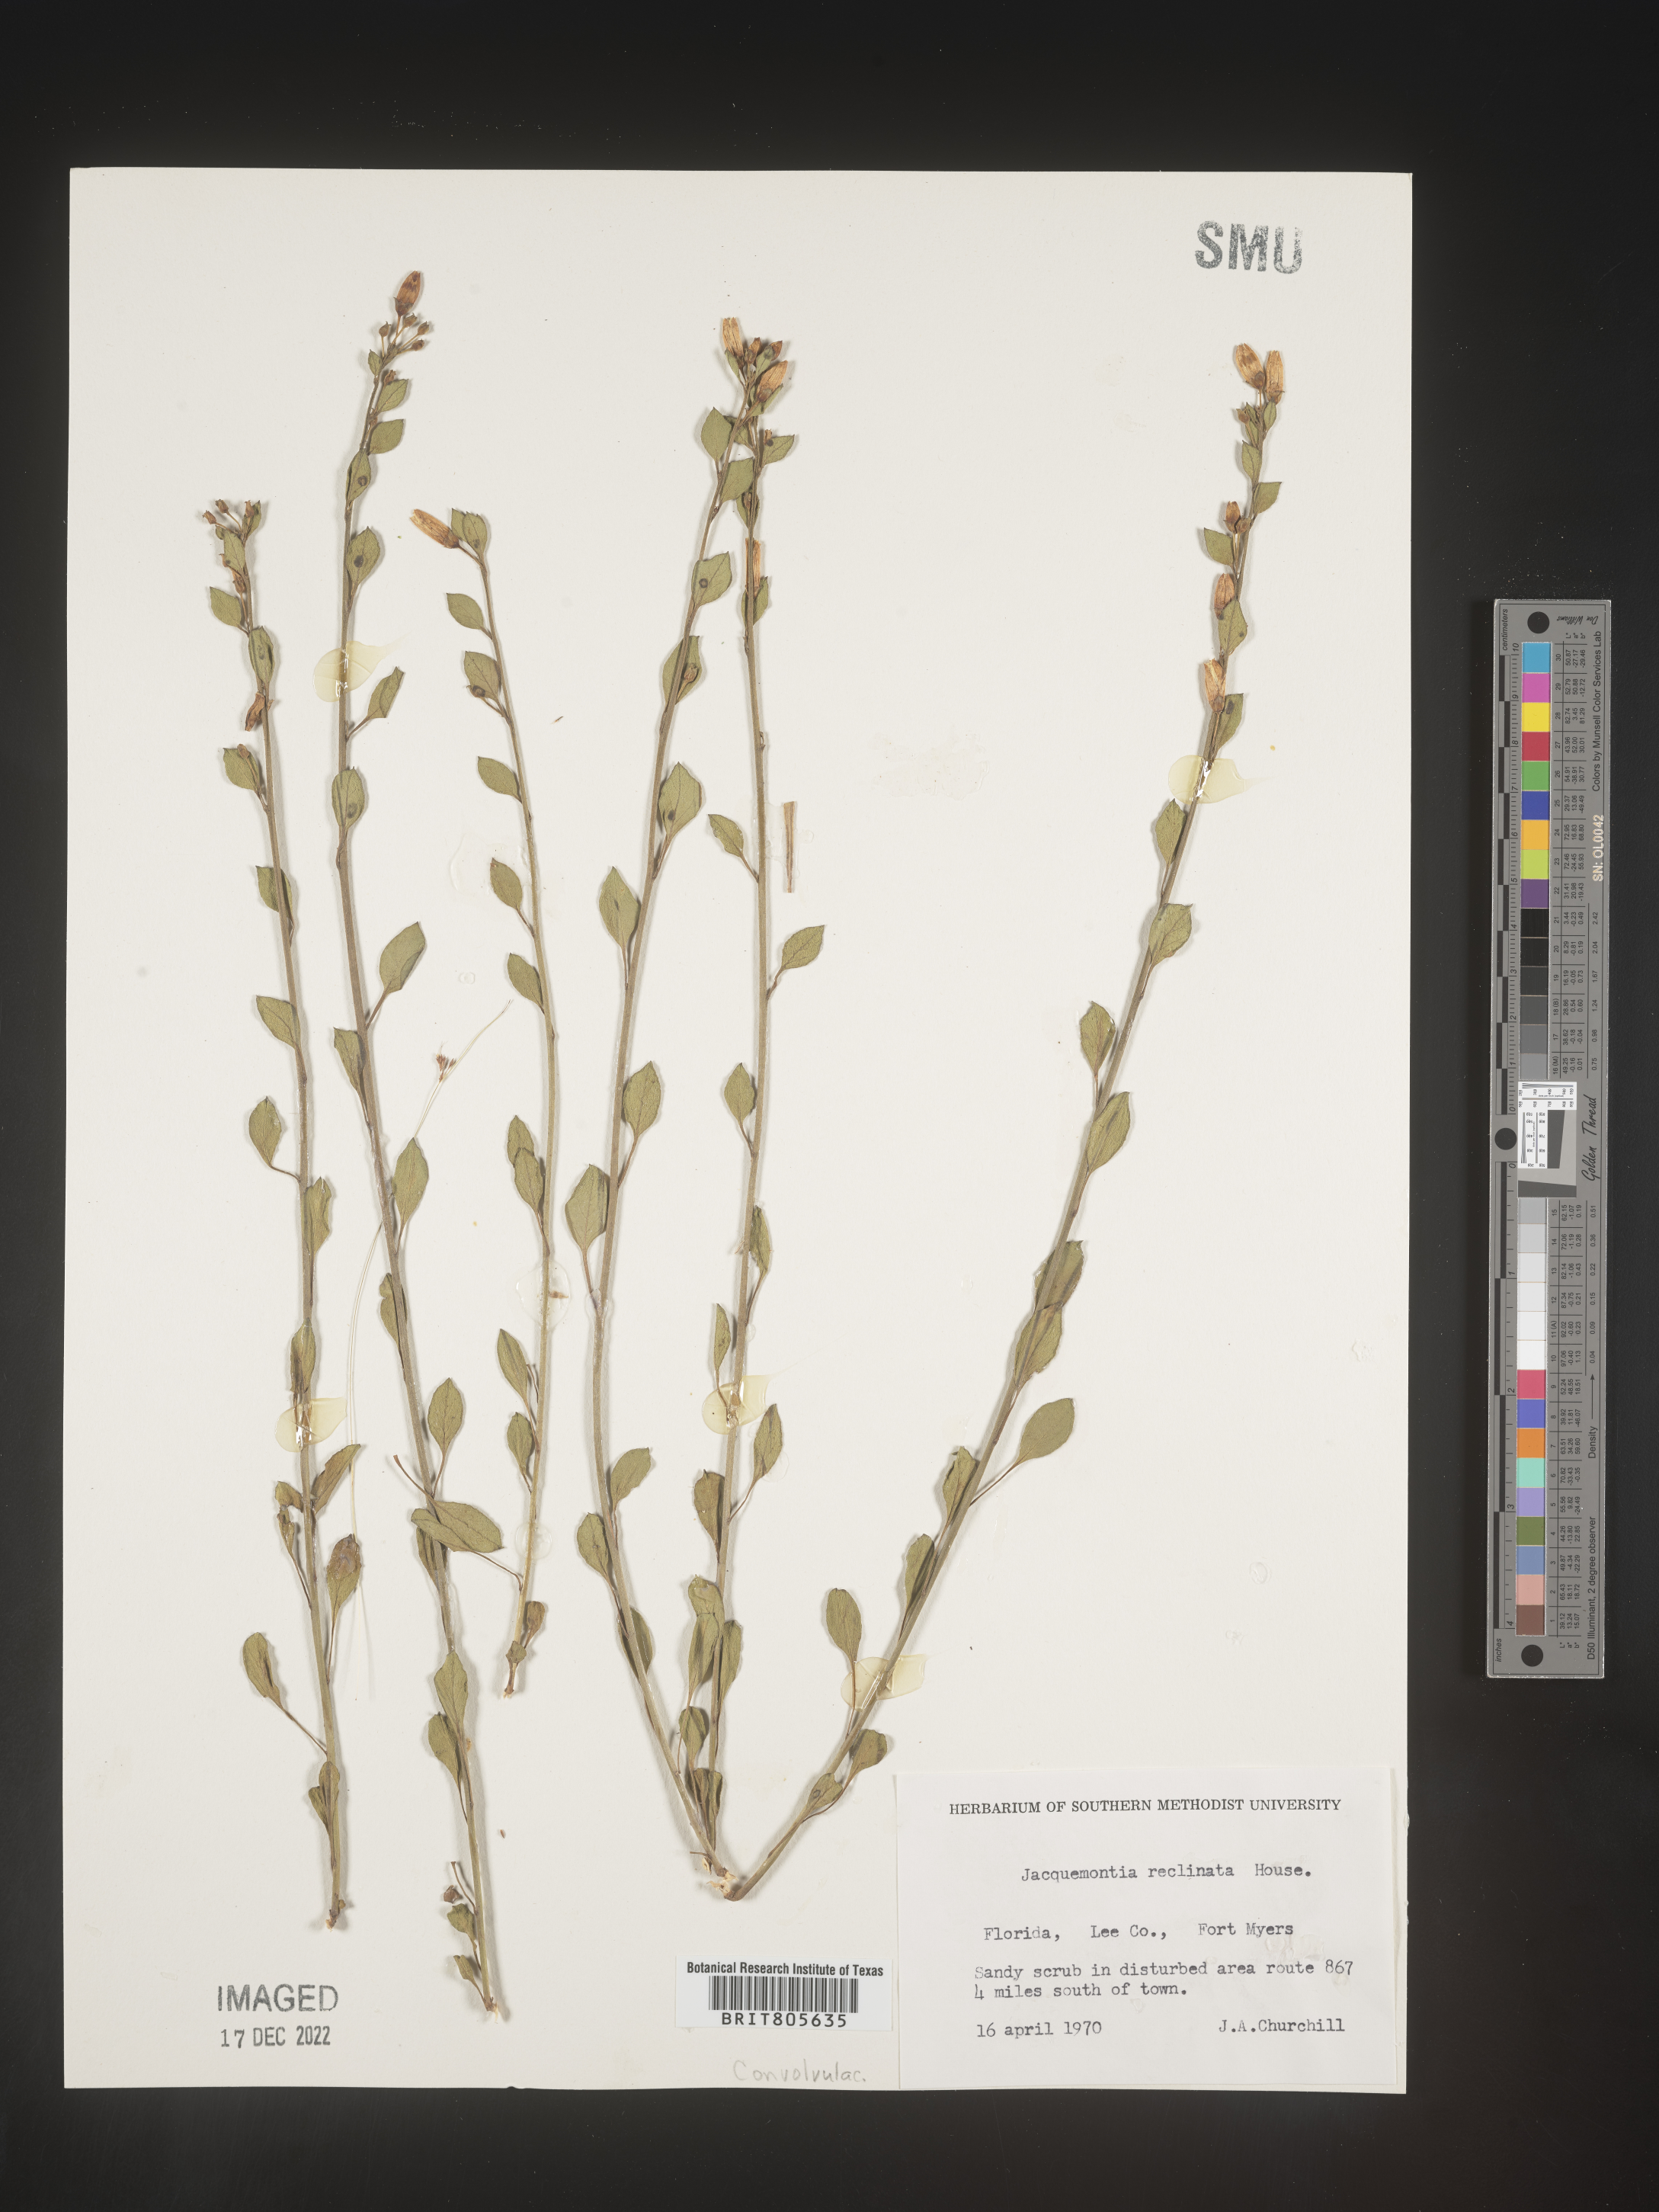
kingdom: Plantae
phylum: Tracheophyta
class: Magnoliopsida
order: Solanales
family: Convolvulaceae
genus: Jacquemontia
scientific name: Jacquemontia
